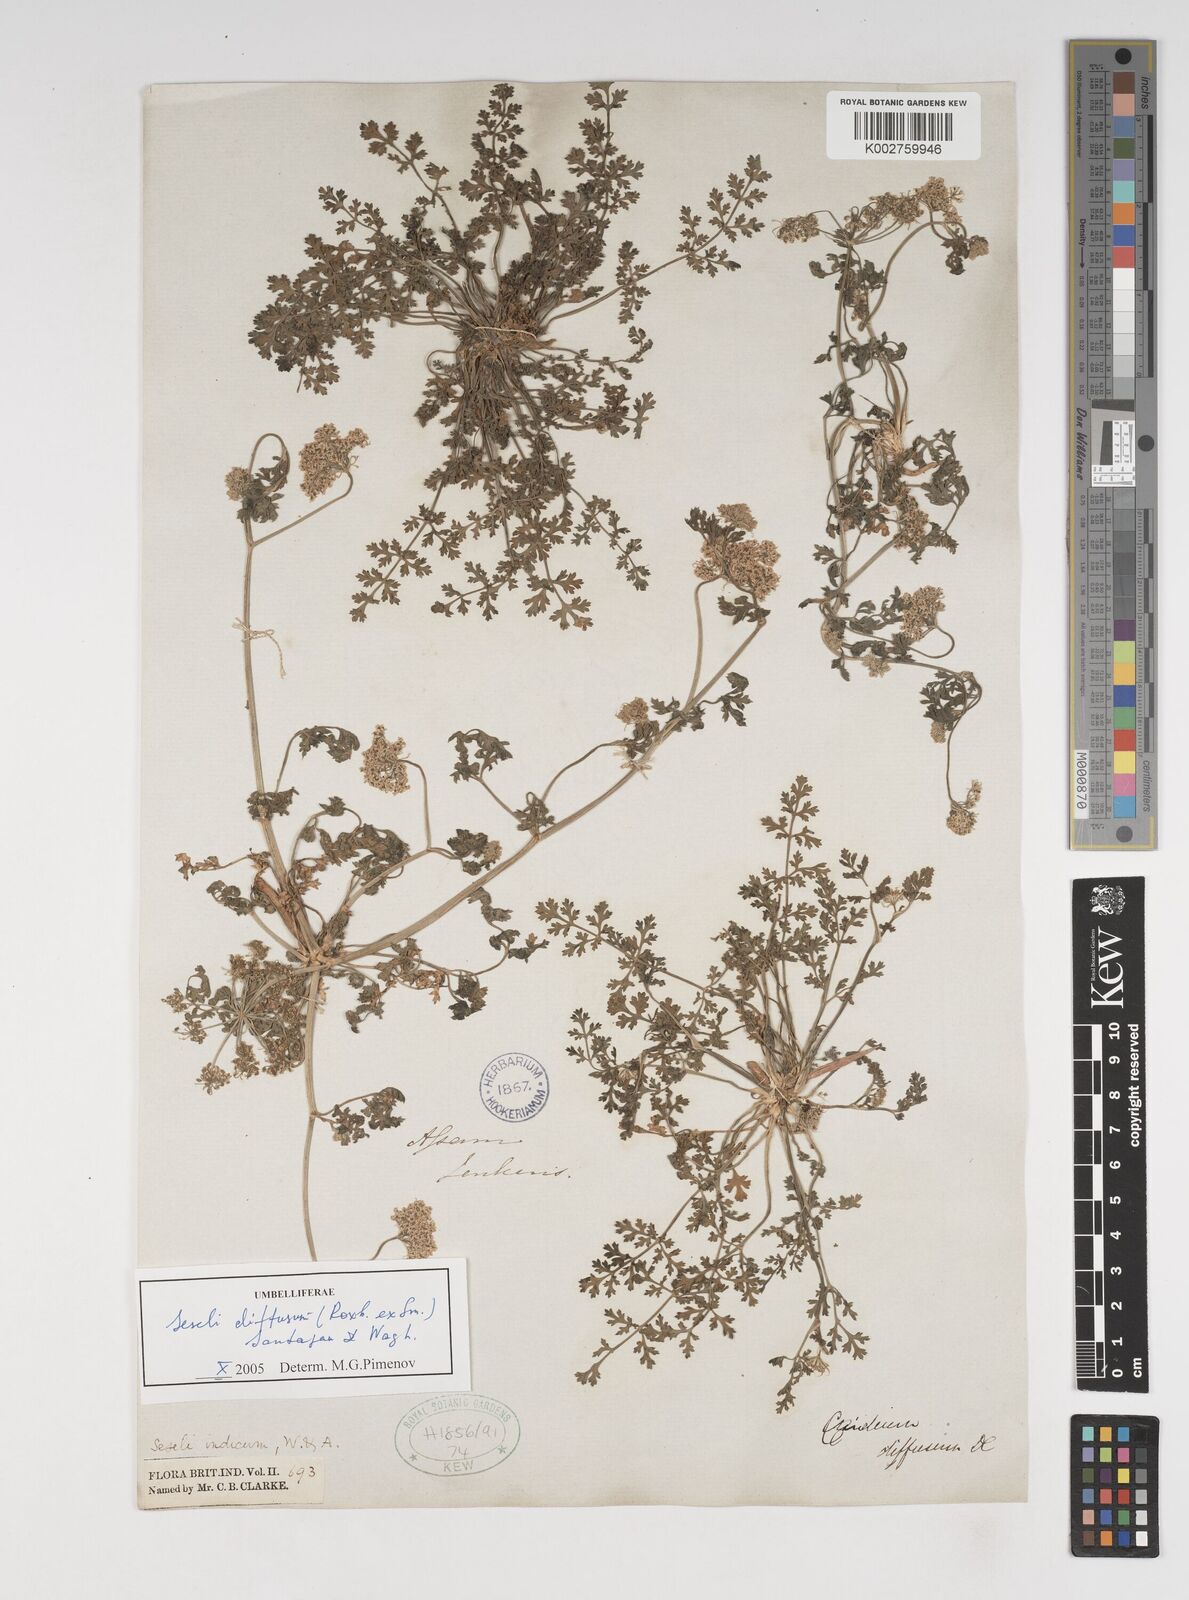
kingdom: Plantae
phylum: Tracheophyta
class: Magnoliopsida
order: Apiales
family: Apiaceae
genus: Psammogeton
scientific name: Psammogeton diffusum
